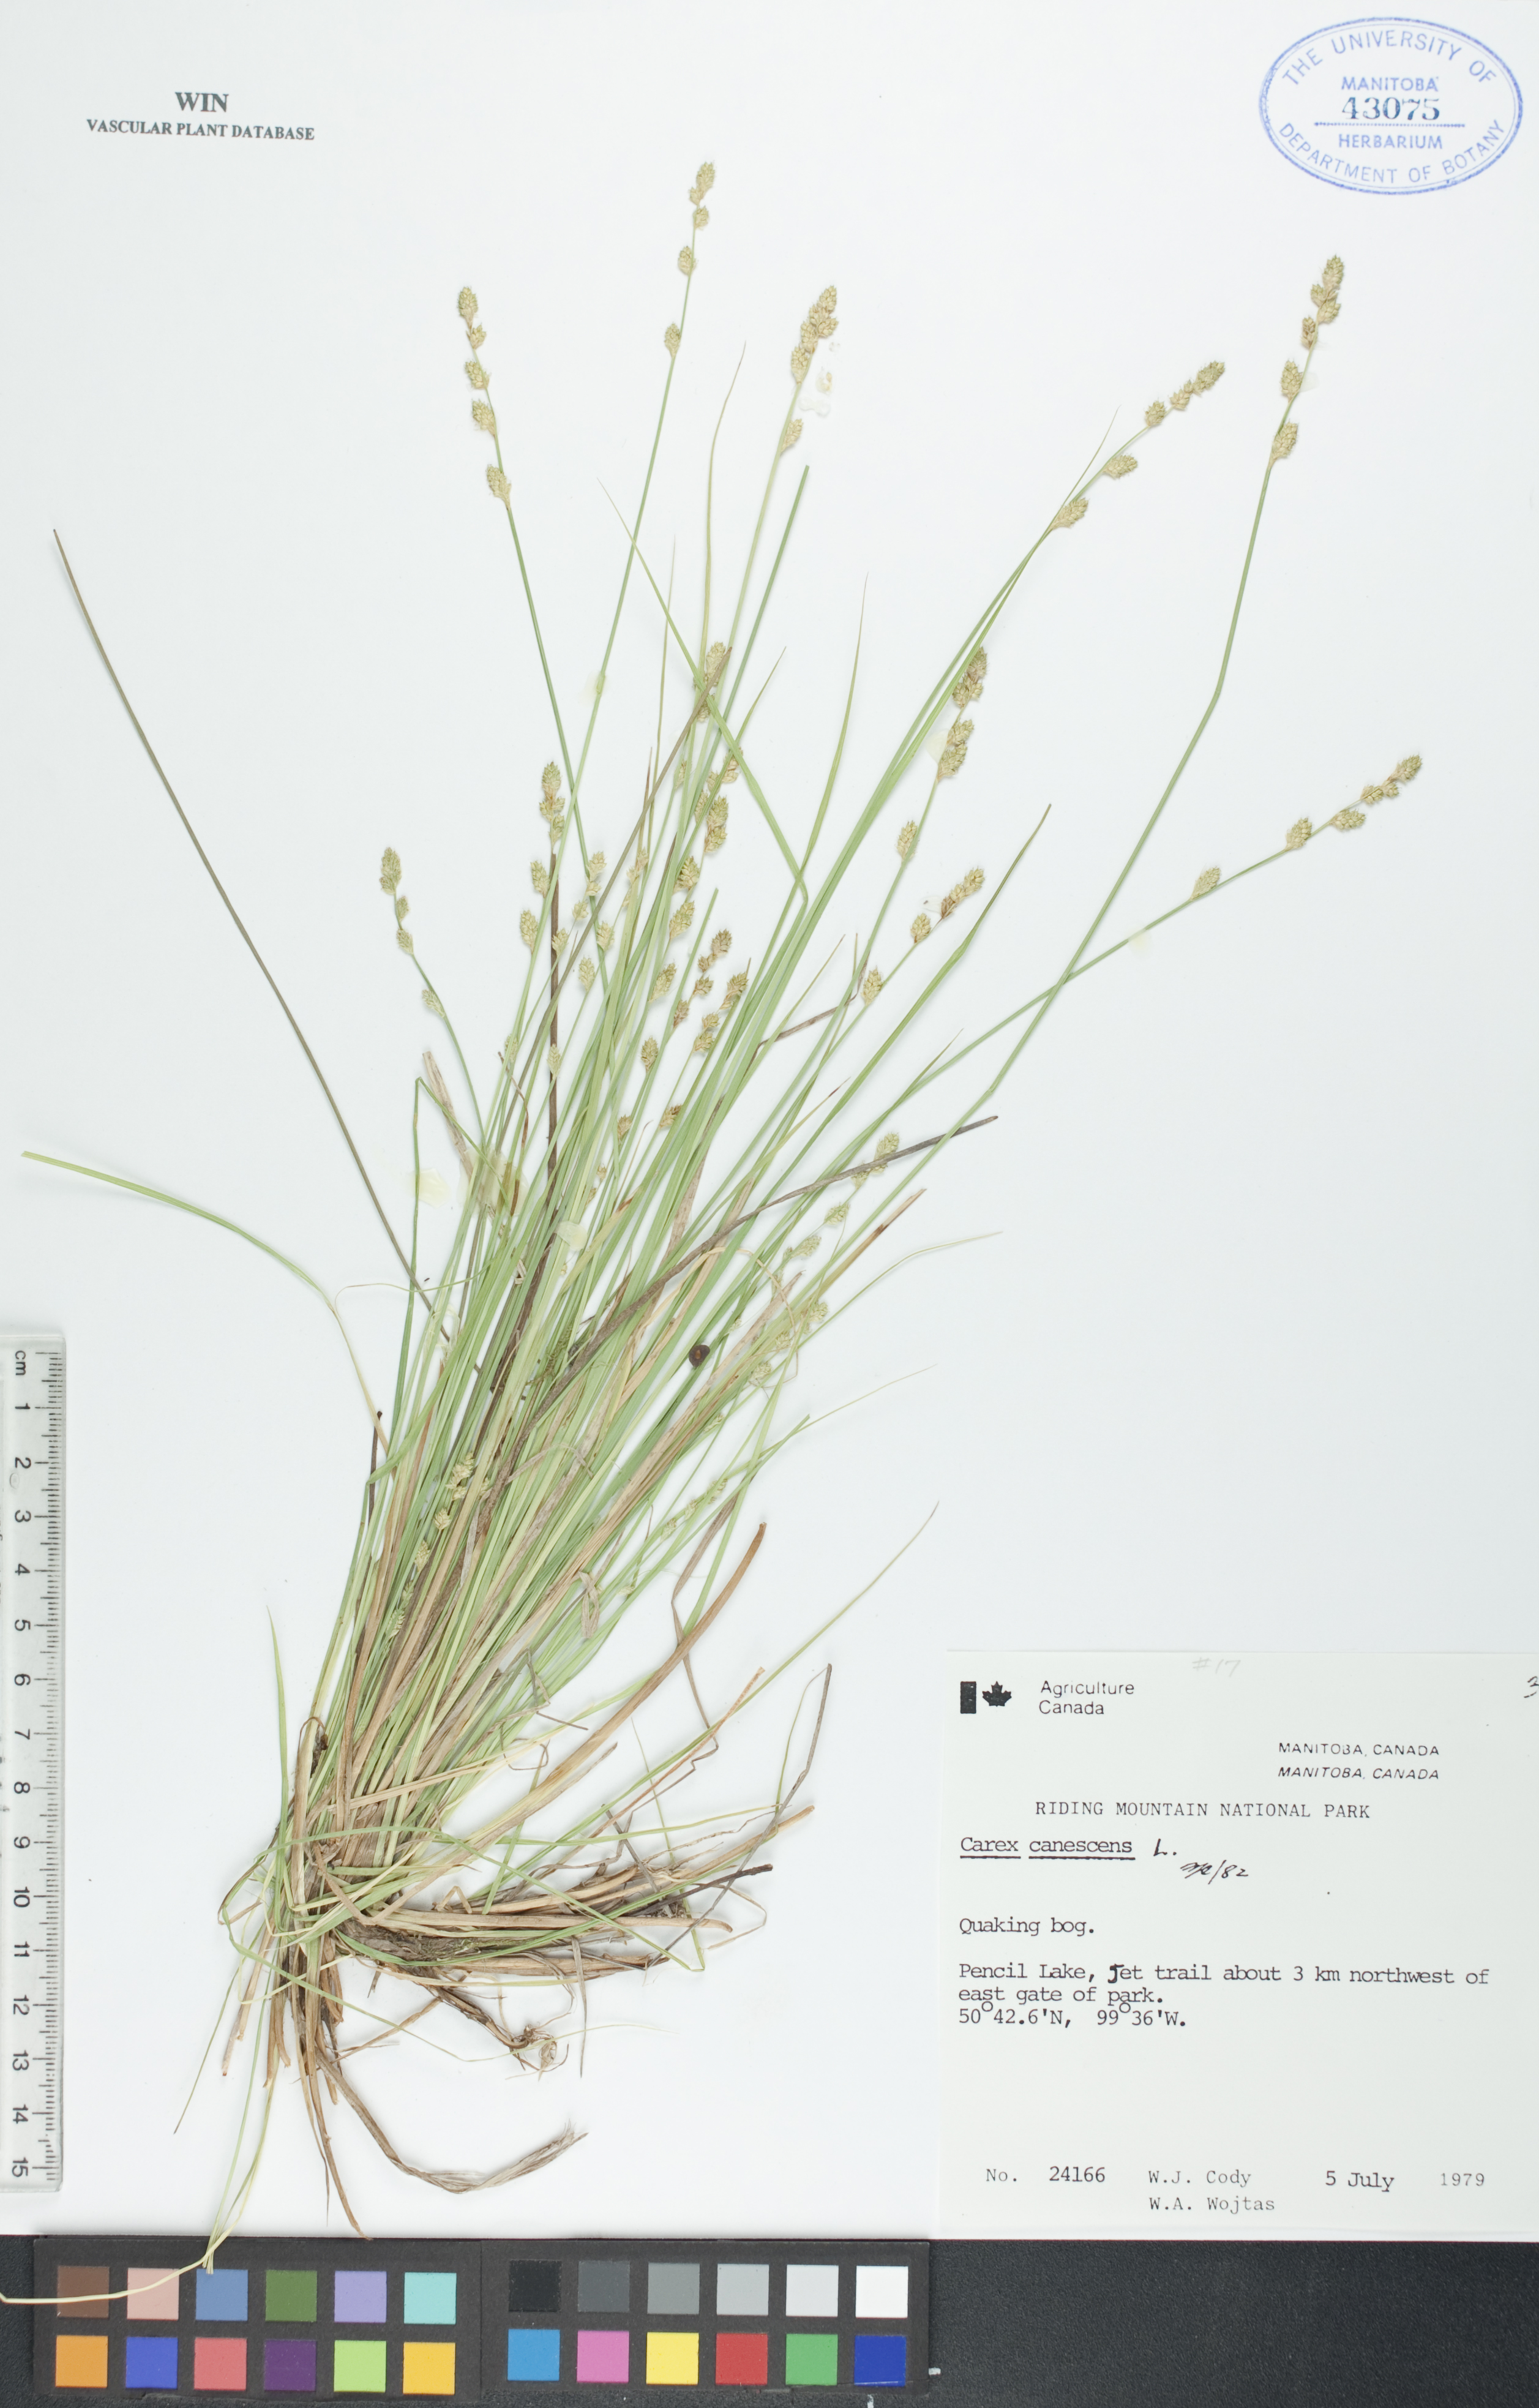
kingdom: Plantae
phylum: Tracheophyta
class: Liliopsida
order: Poales
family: Cyperaceae
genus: Carex
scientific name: Carex canescens
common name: White sedge
